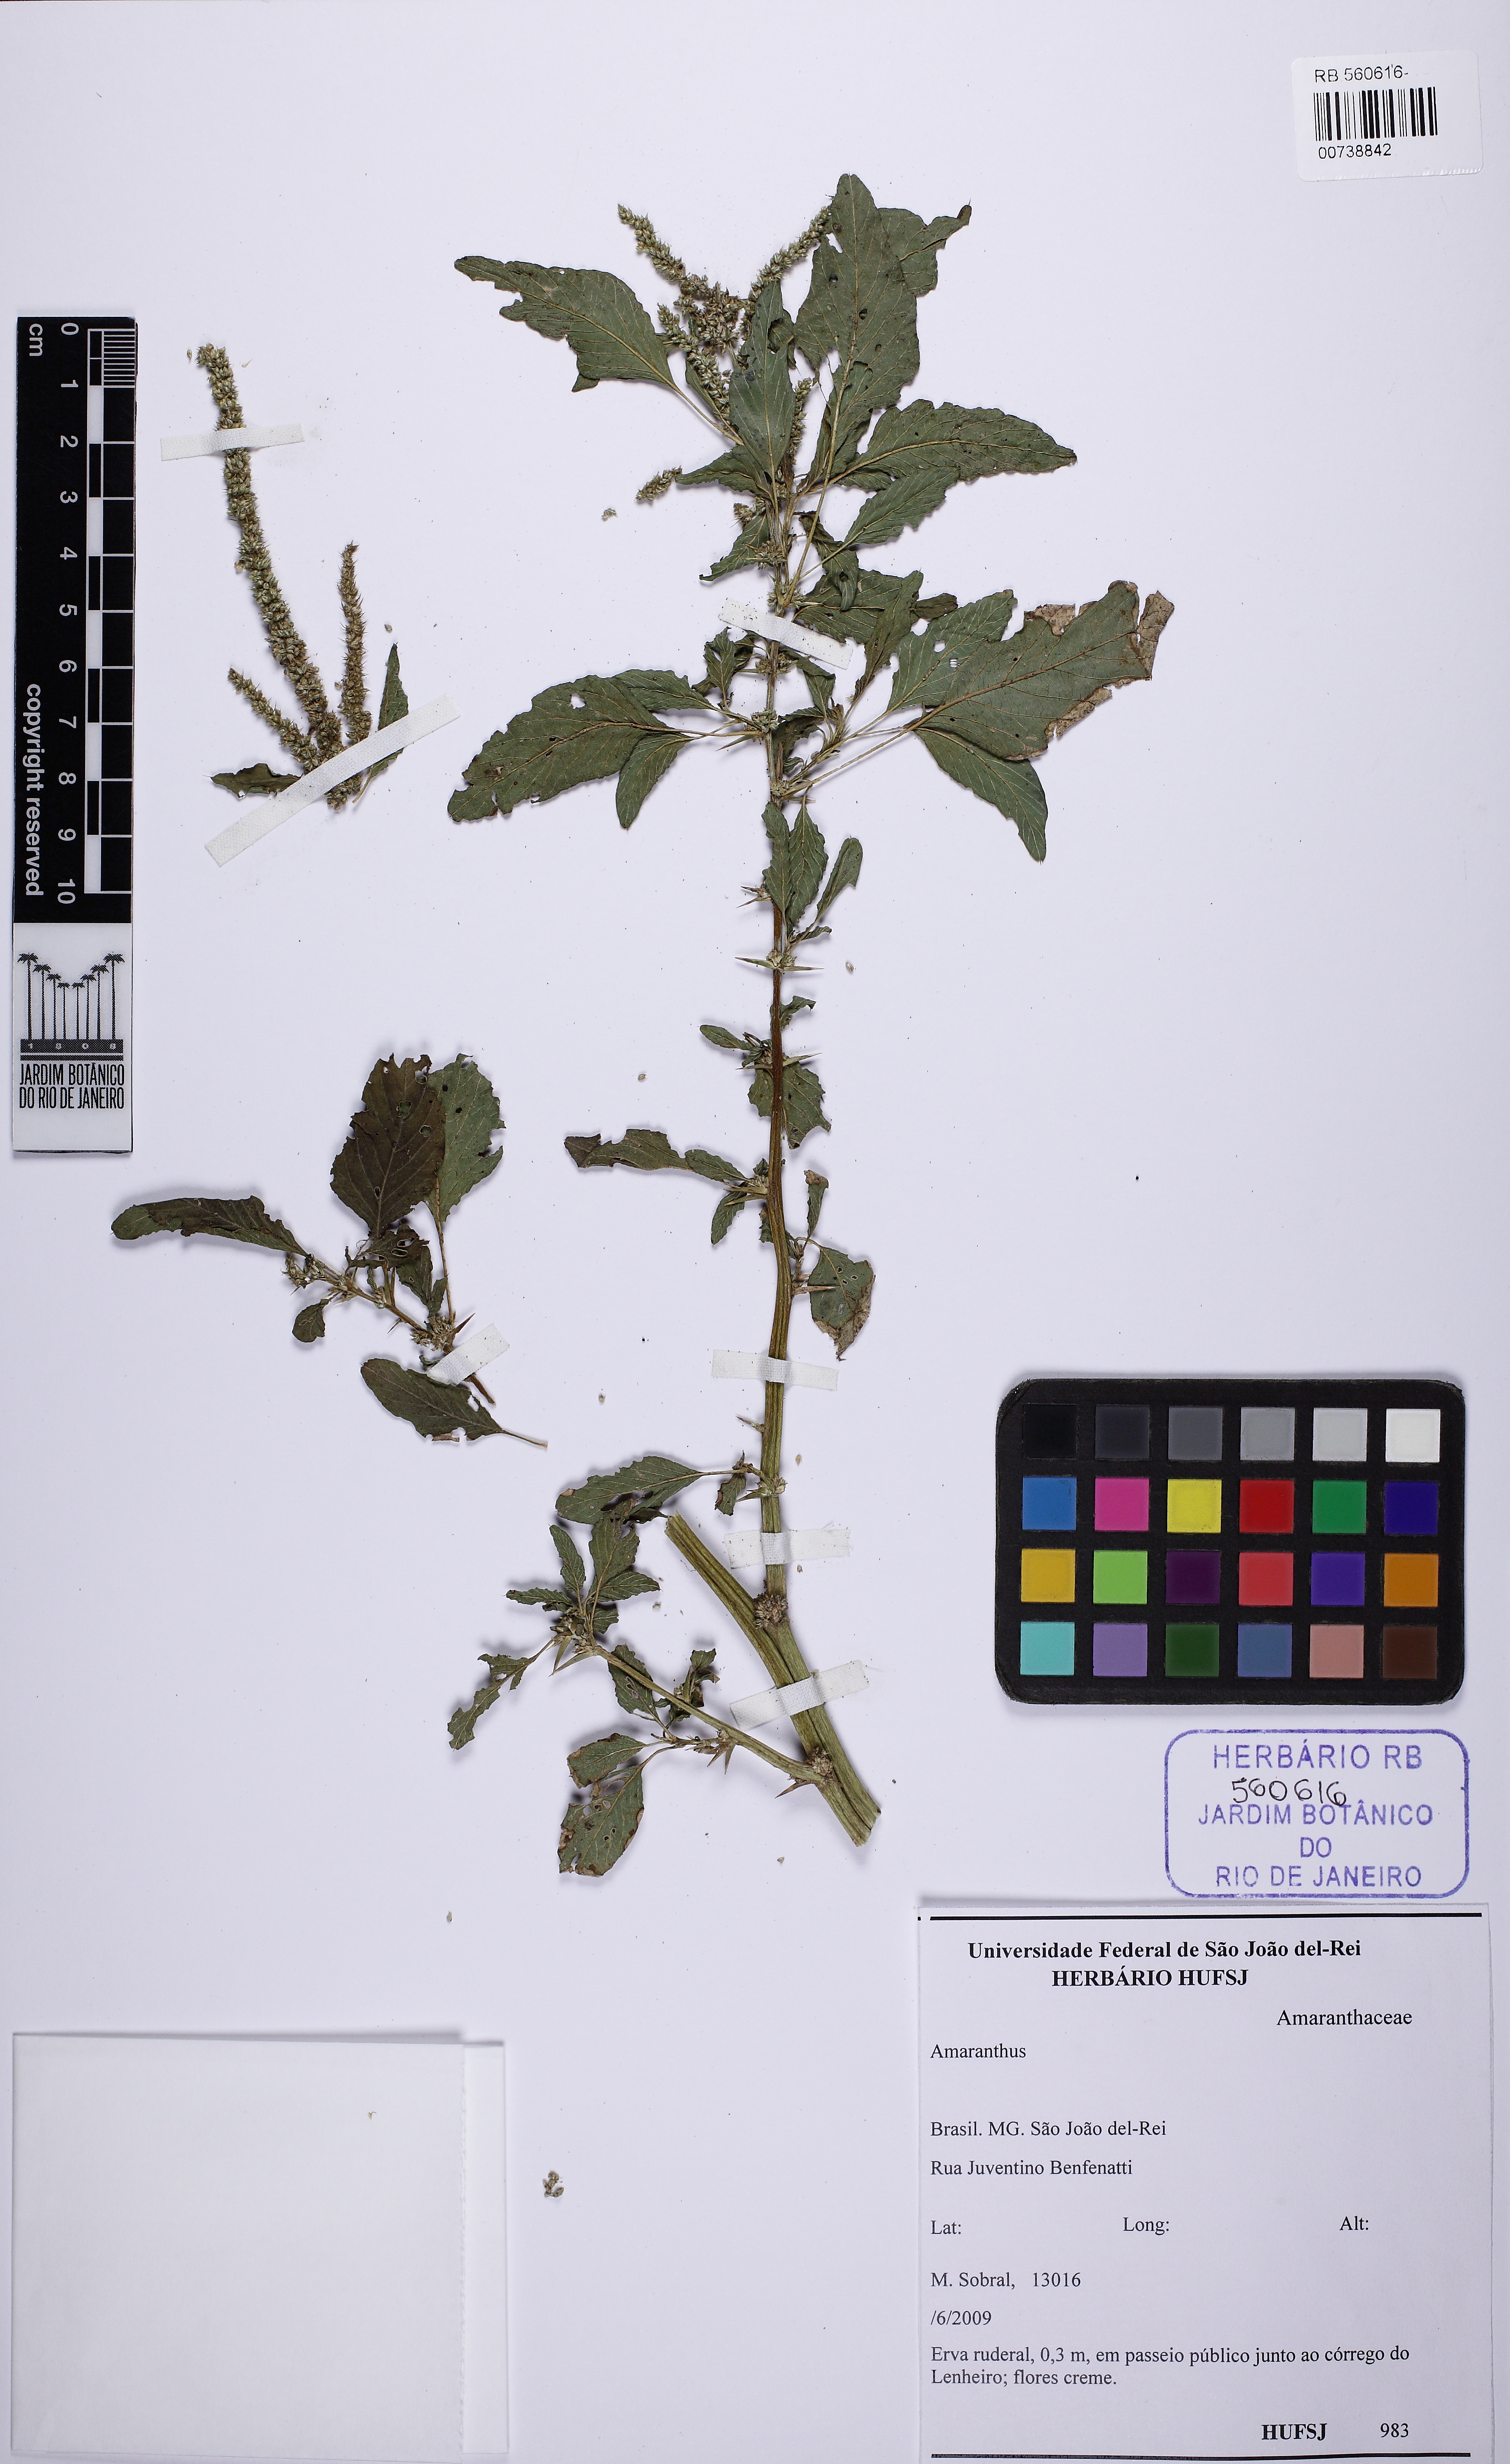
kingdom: Plantae
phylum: Tracheophyta
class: Magnoliopsida
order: Caryophyllales
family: Amaranthaceae
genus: Amaranthus
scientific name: Amaranthus
